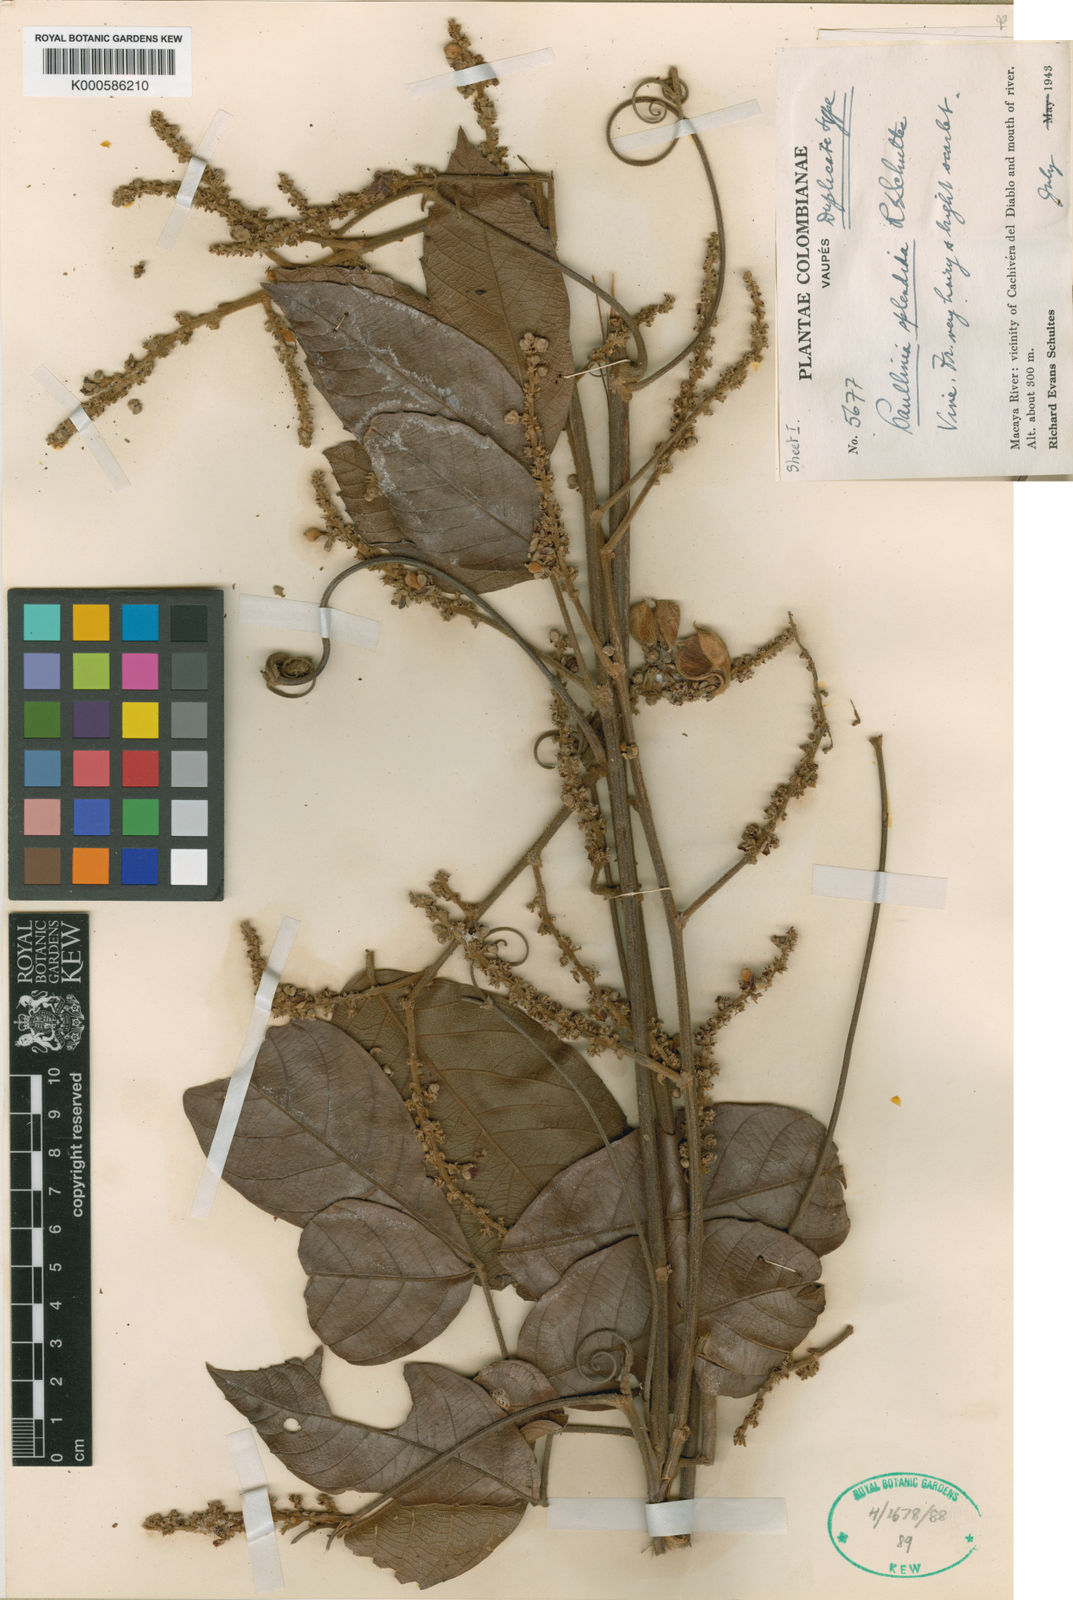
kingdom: Plantae
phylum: Tracheophyta
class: Magnoliopsida
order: Sapindales
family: Sapindaceae
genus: Paullinia
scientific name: Paullinia splendida
